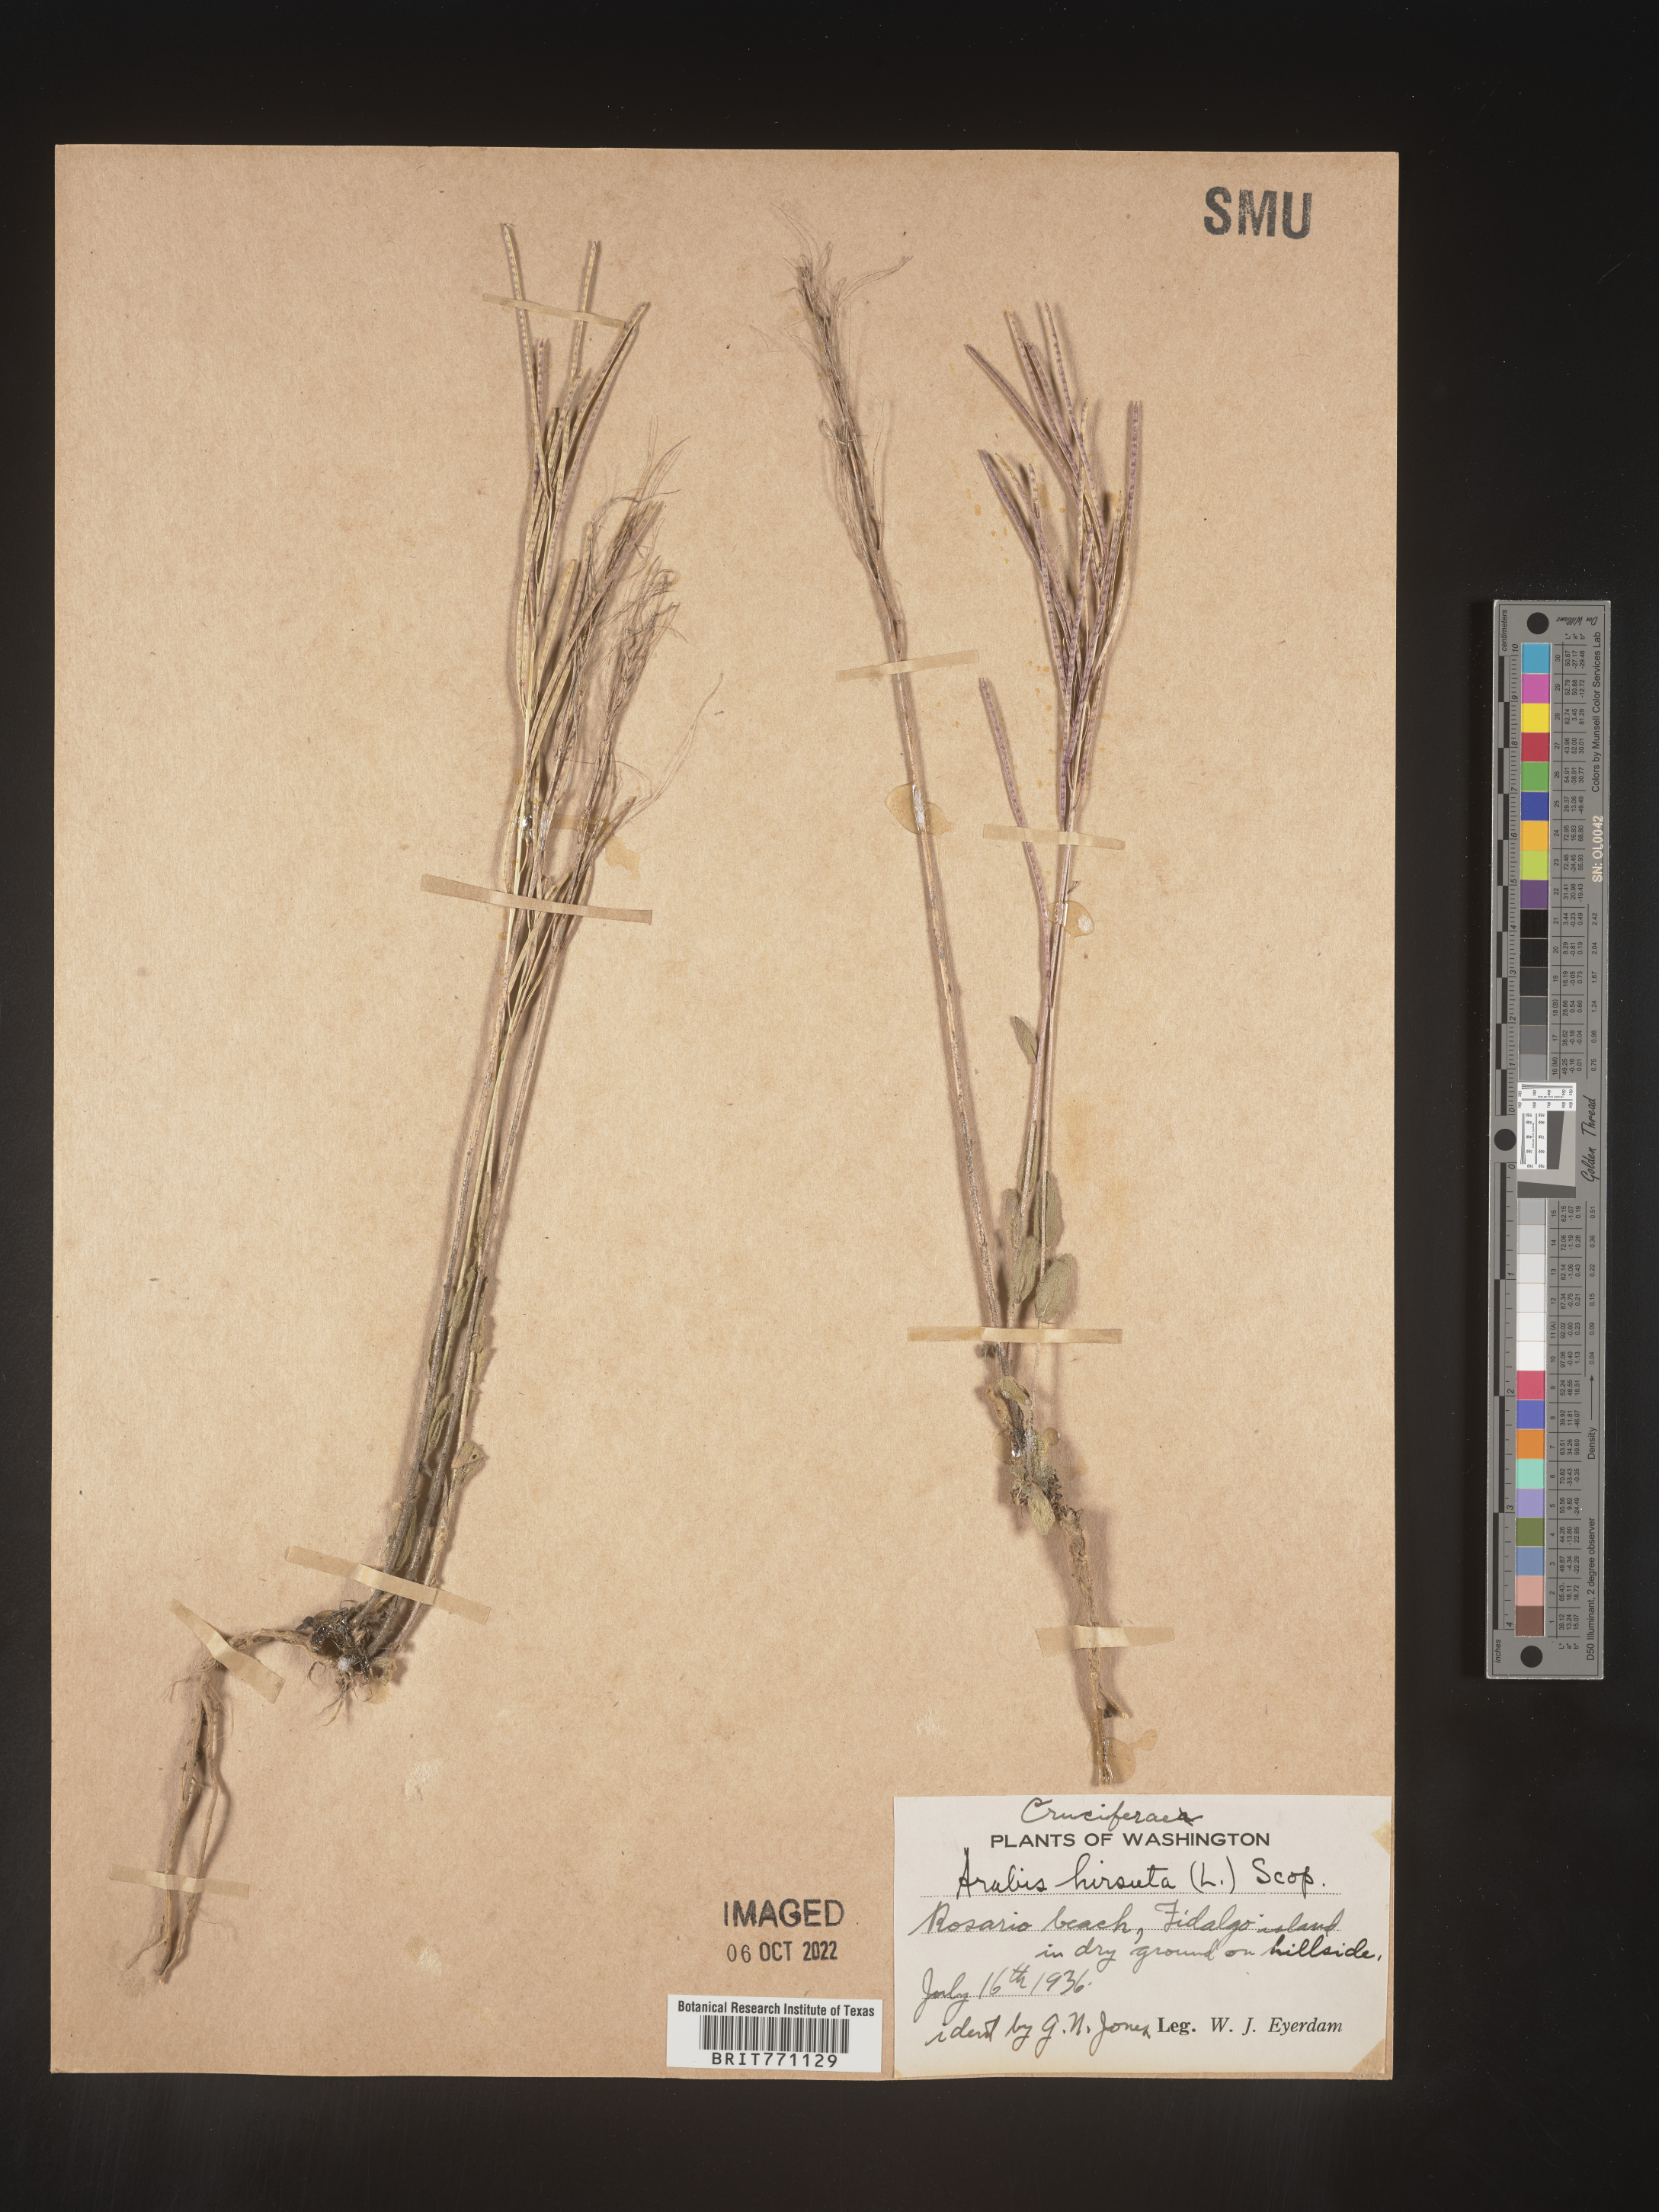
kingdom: Plantae
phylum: Tracheophyta
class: Magnoliopsida
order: Brassicales
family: Brassicaceae
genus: Arabis
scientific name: Arabis hirsuta
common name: Hairy rock-cress
